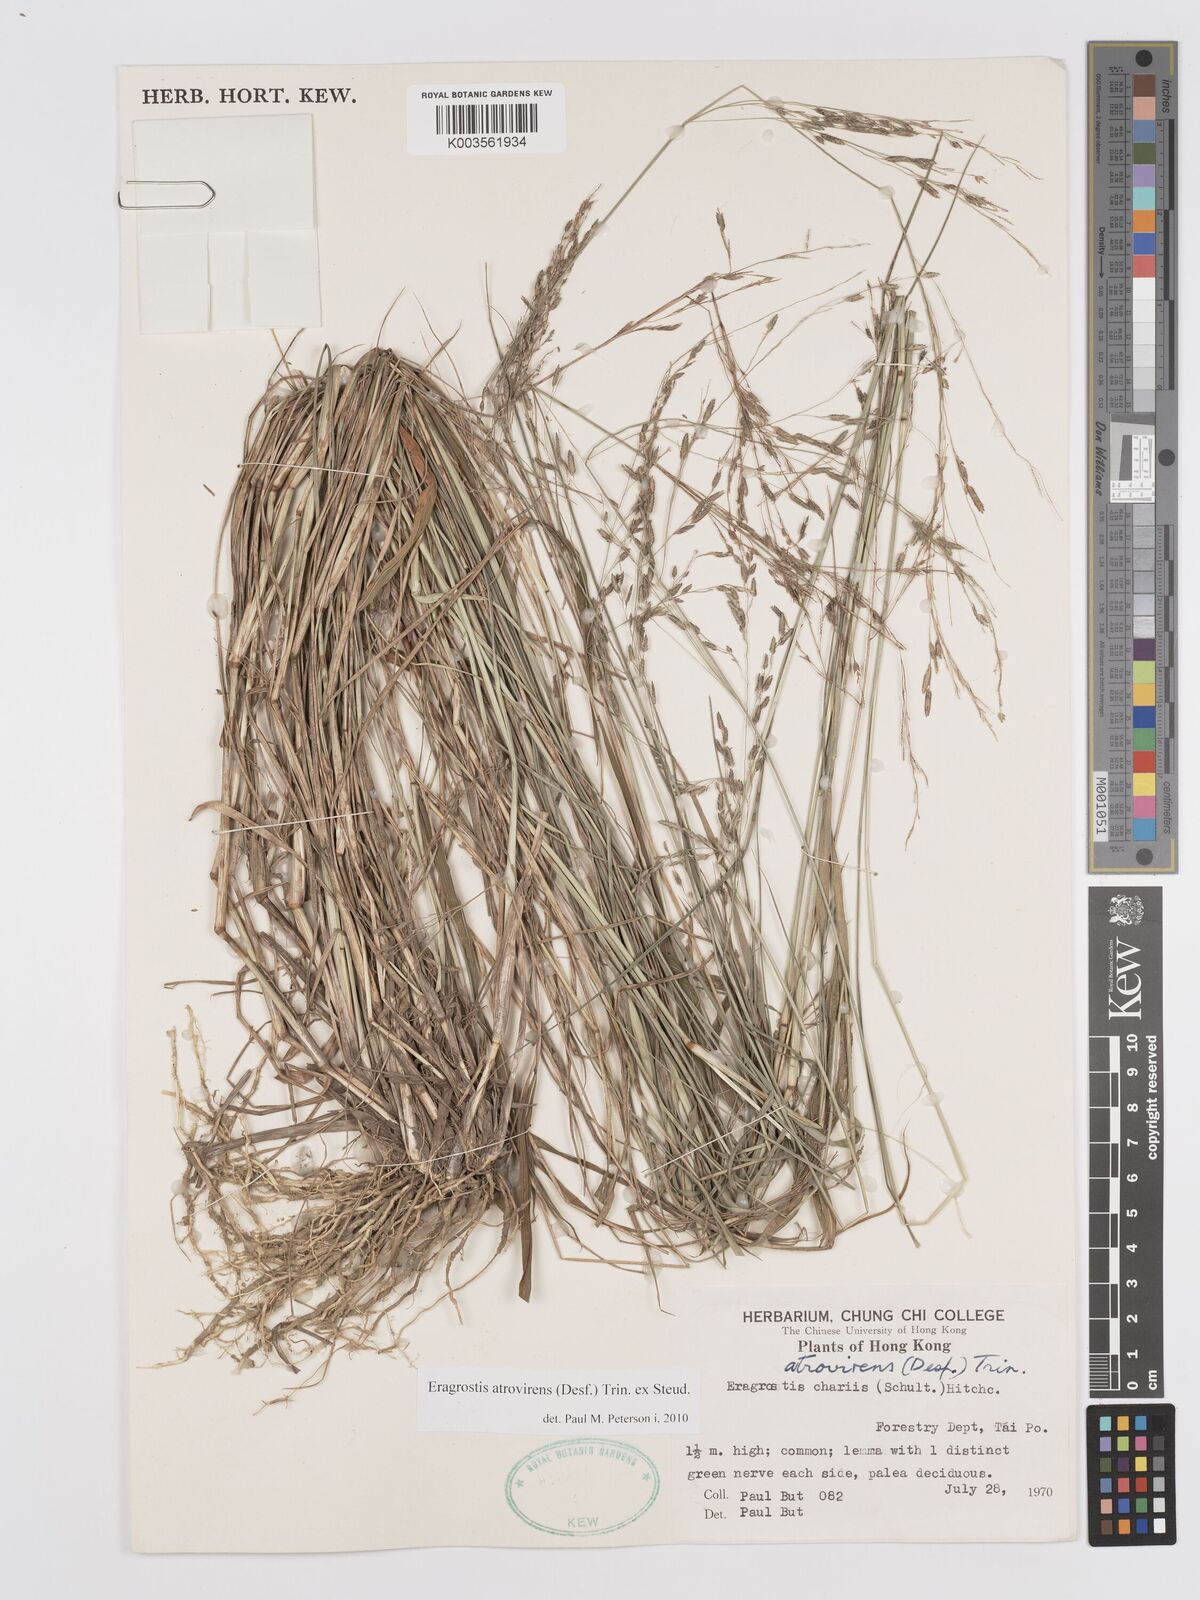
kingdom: Plantae
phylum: Tracheophyta
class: Liliopsida
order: Poales
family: Poaceae
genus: Eragrostis
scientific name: Eragrostis atrovirens
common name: Thalia lovegrass
